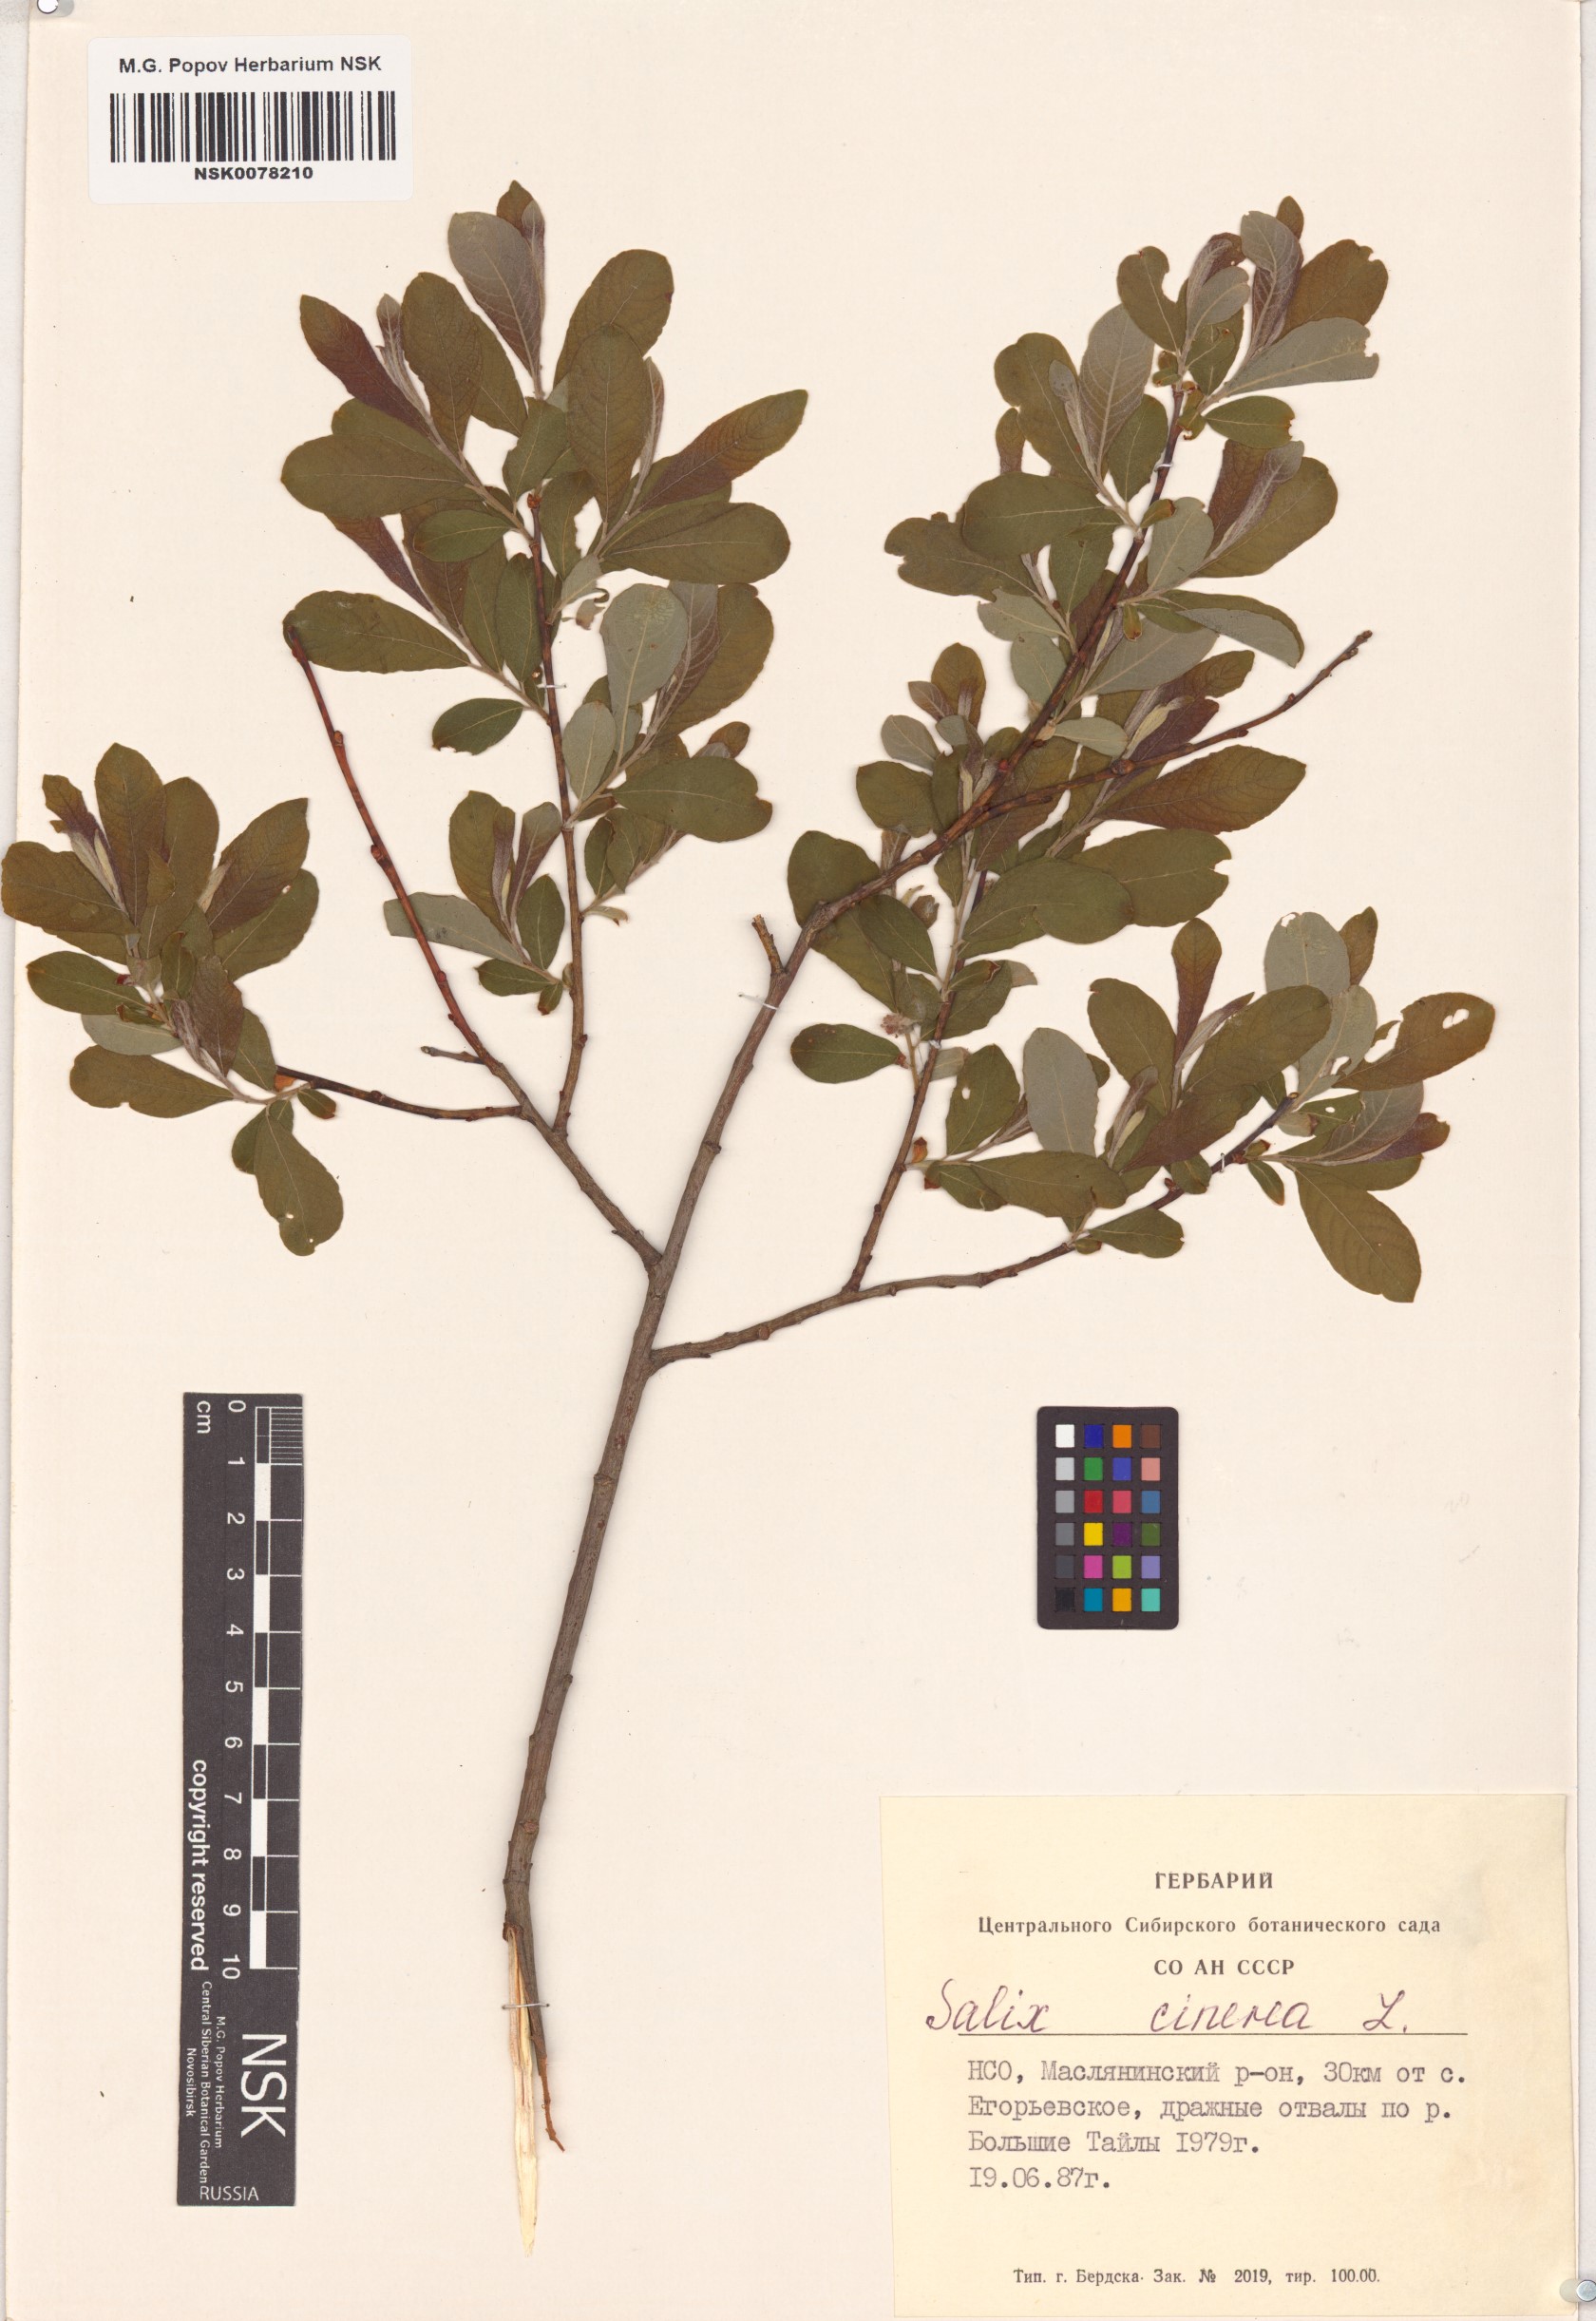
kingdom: Plantae
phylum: Tracheophyta
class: Magnoliopsida
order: Malpighiales
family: Salicaceae
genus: Salix
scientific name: Salix cinerea
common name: Common sallow
